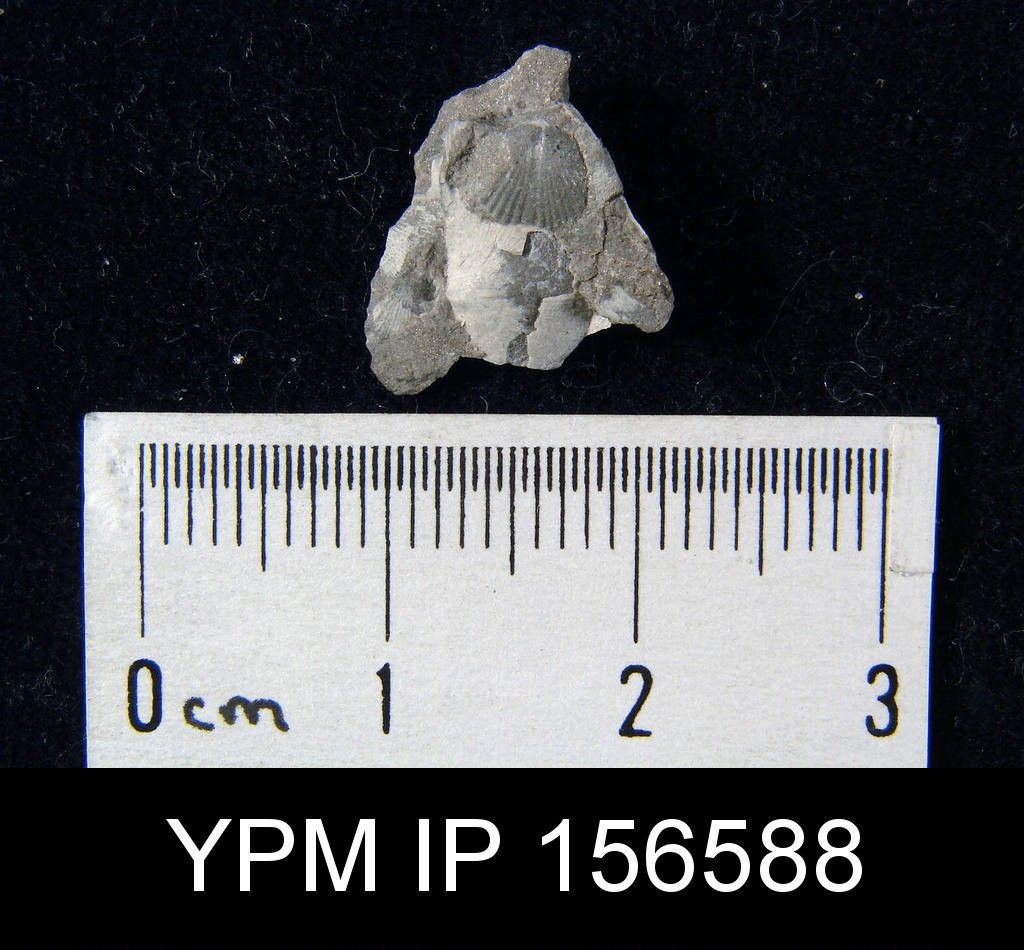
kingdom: Animalia
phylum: Brachiopoda
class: Rhynchonellata
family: Atrypidae
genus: Zygospira
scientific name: Zygospira Atrypa recurvirostris
